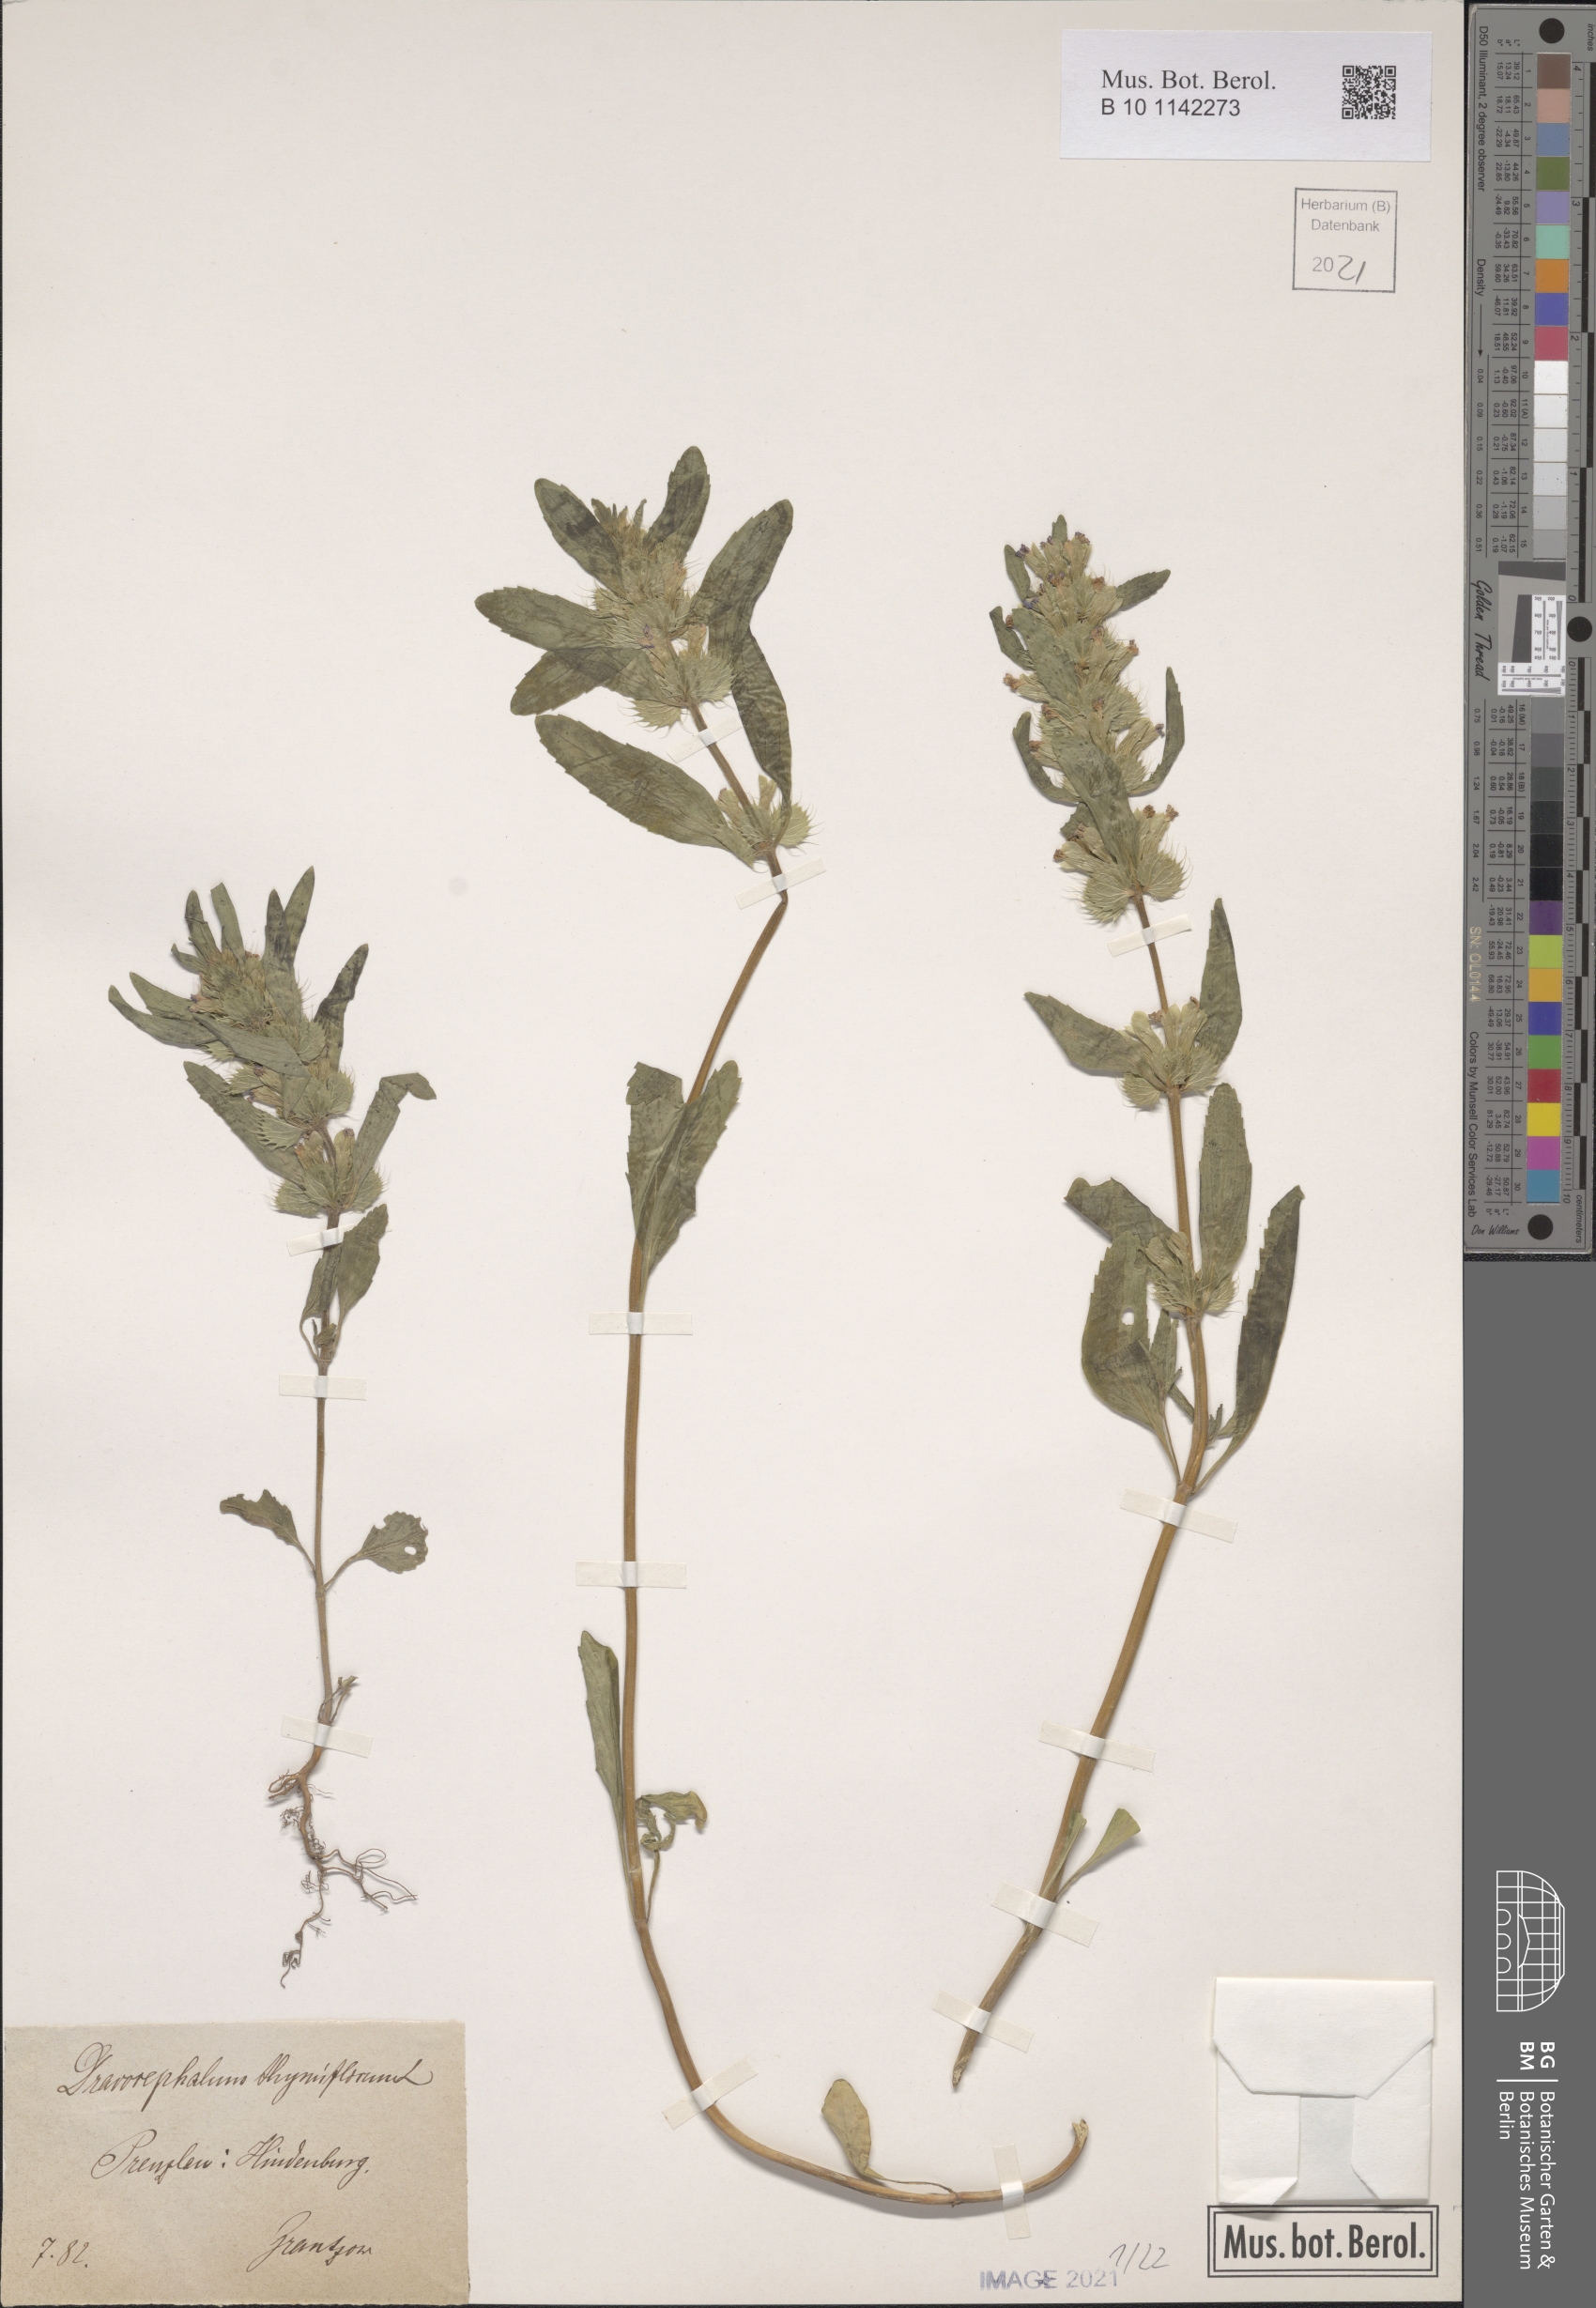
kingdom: Plantae
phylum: Tracheophyta
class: Magnoliopsida
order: Lamiales
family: Lamiaceae
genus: Dracocephalum
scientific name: Dracocephalum thymiflorum
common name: Thymeleaf dragonhead
